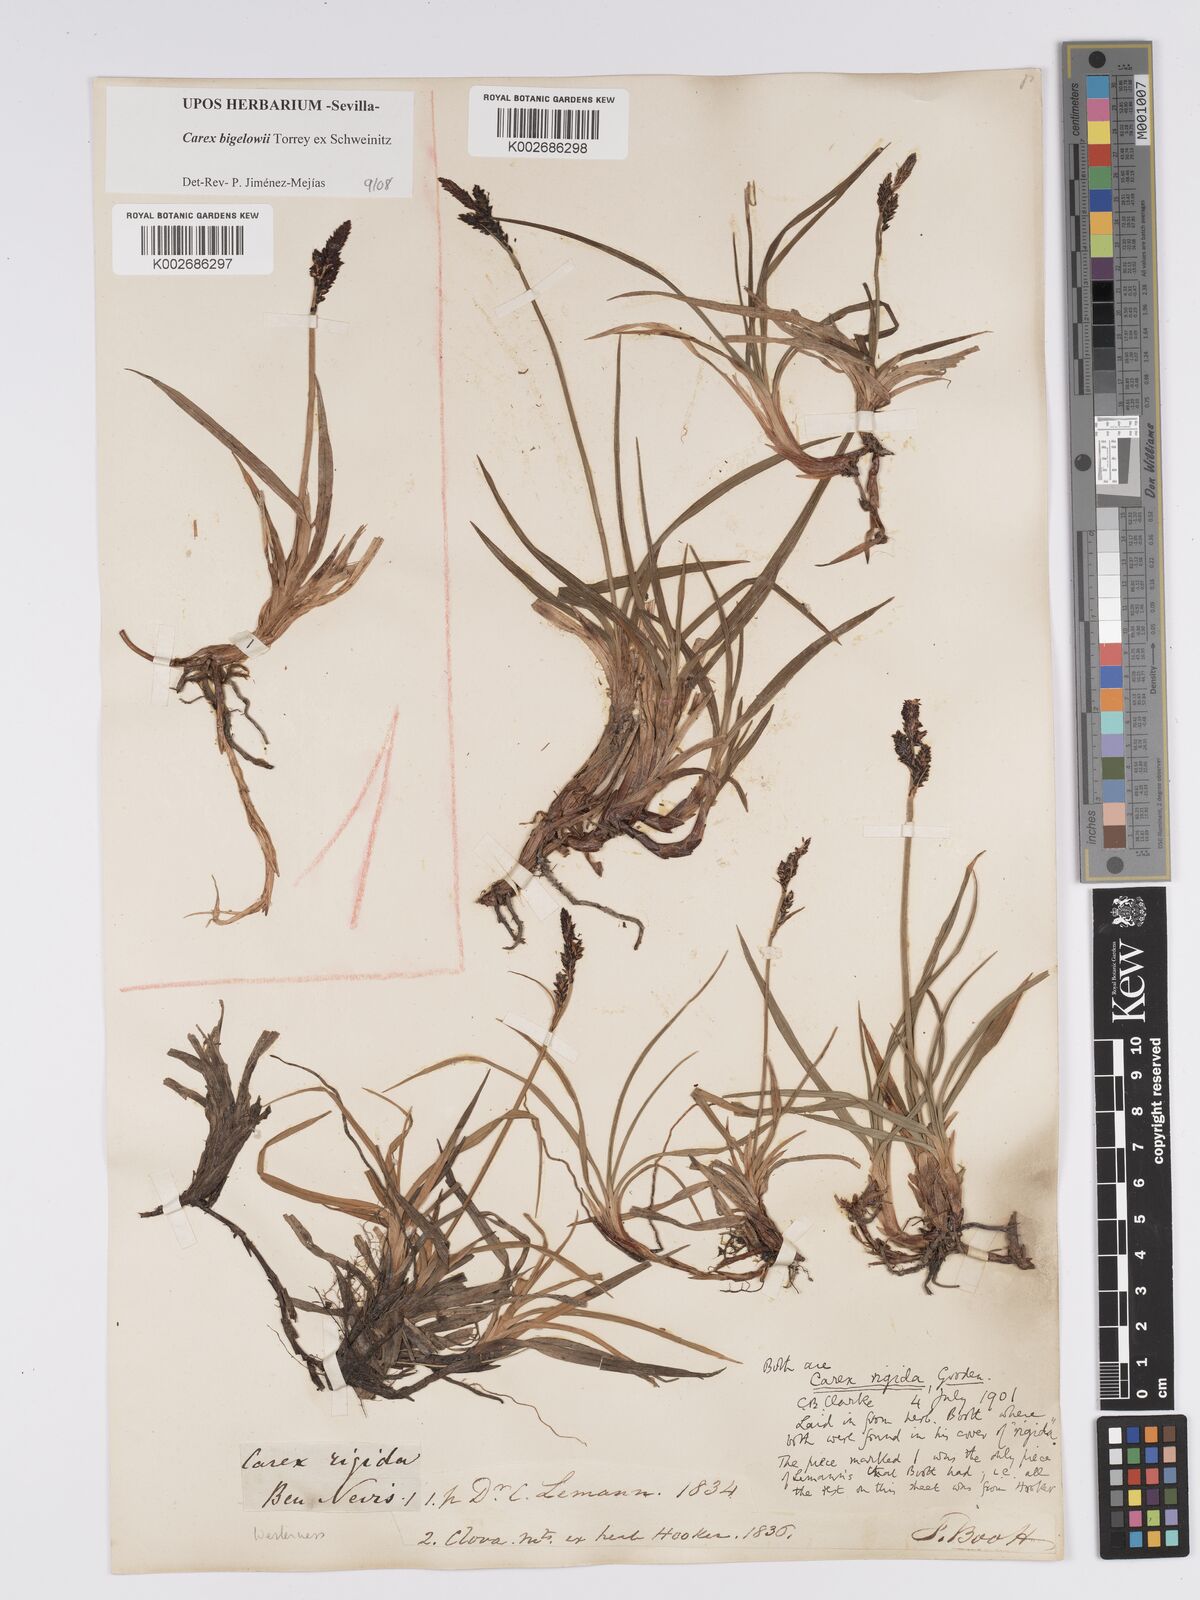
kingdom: Plantae
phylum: Tracheophyta
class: Liliopsida
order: Poales
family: Cyperaceae
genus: Carex
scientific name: Carex bigelowii
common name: Stiff sedge
